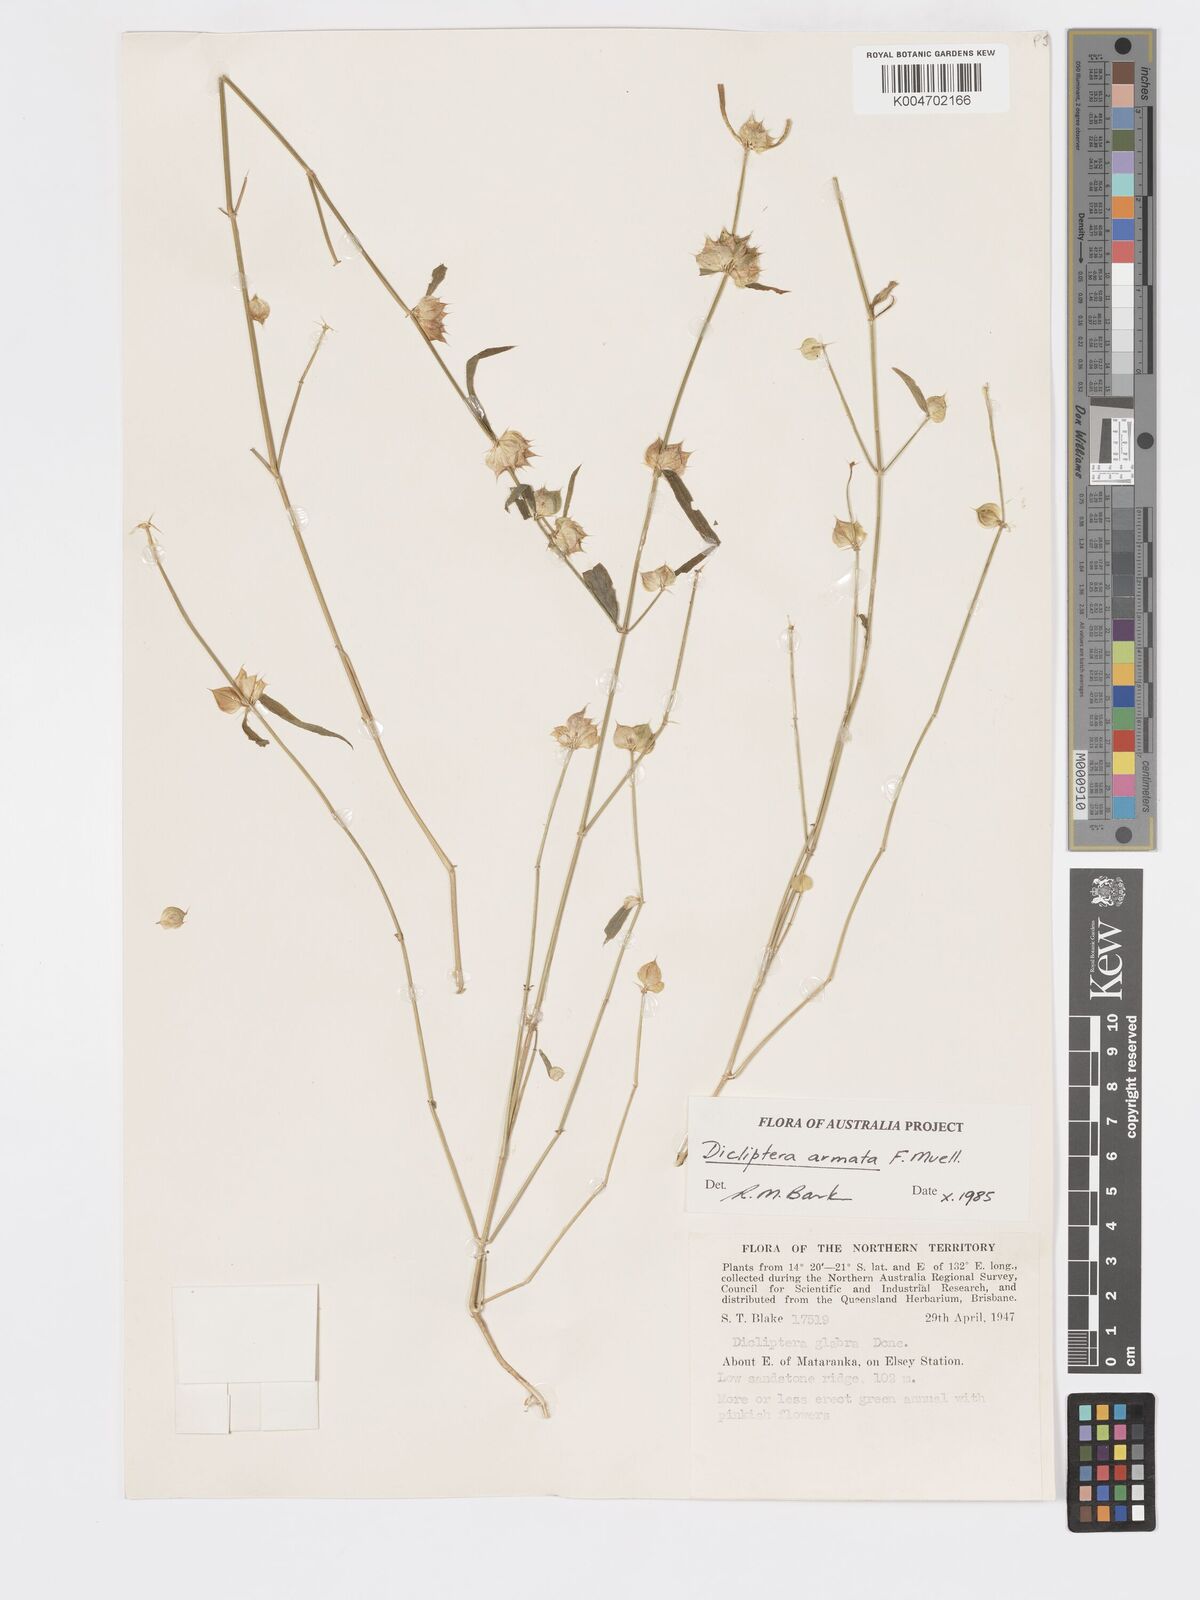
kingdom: Plantae
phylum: Tracheophyta
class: Magnoliopsida
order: Lamiales
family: Acanthaceae
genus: Dicliptera
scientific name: Dicliptera armata
